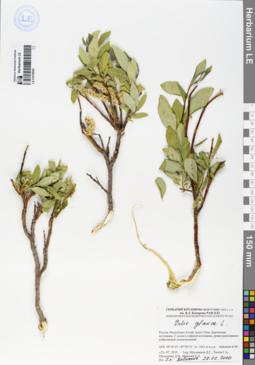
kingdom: Plantae
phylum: Tracheophyta
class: Magnoliopsida
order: Malpighiales
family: Salicaceae
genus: Salix
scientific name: Salix glauca
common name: Glaucous willow
